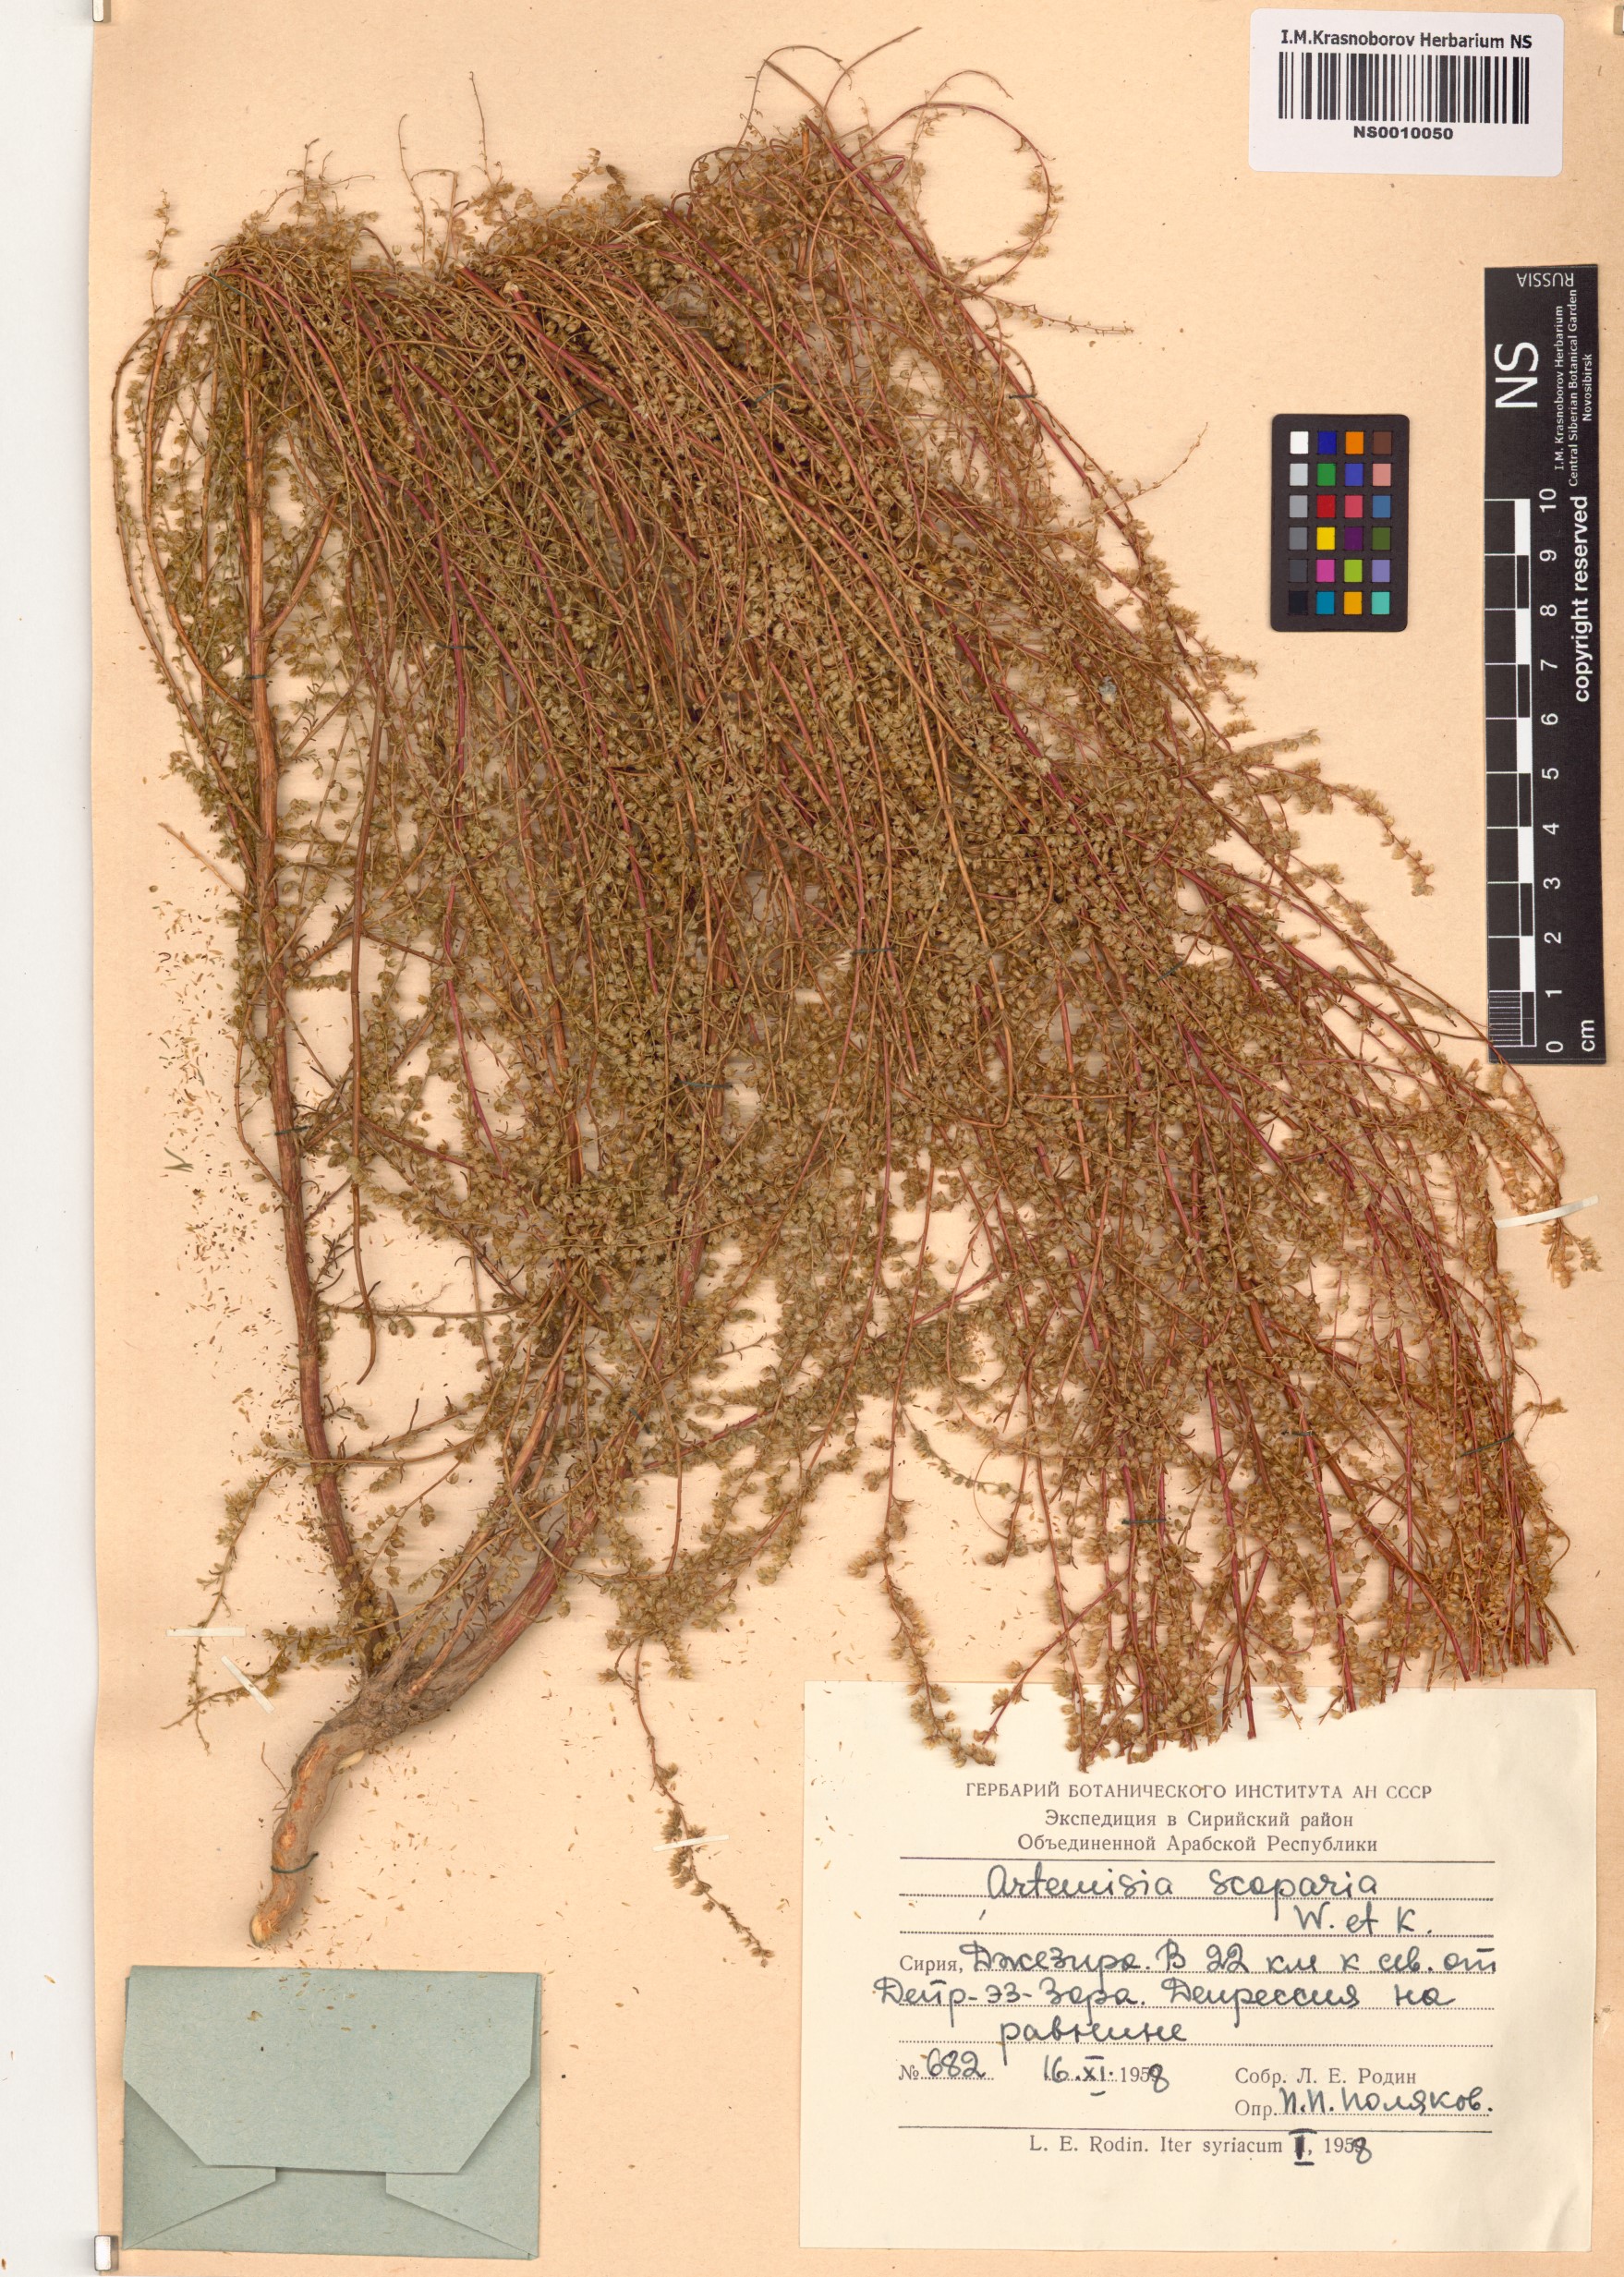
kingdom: Plantae
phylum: Tracheophyta
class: Magnoliopsida
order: Asterales
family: Asteraceae
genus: Artemisia
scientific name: Artemisia scoparia
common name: Redstem wormwood
